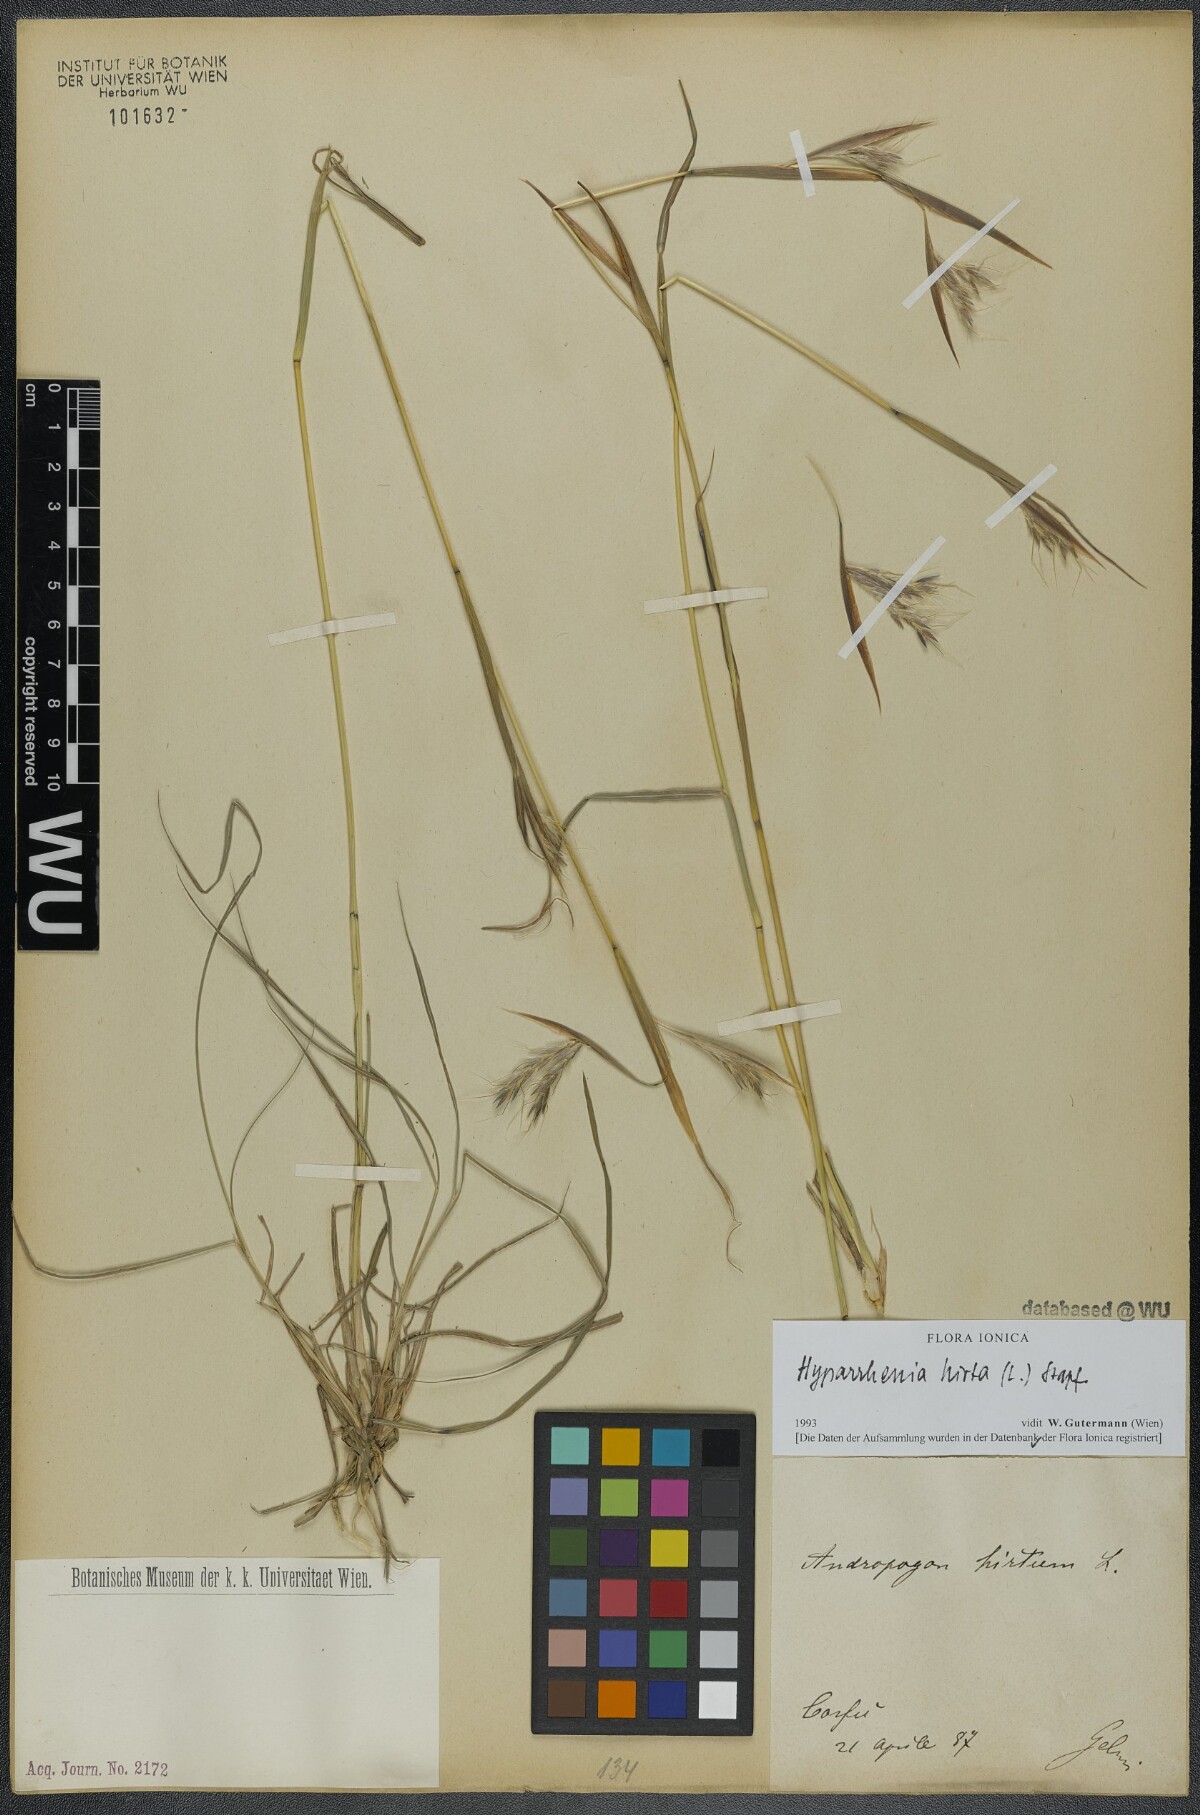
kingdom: Plantae
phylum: Tracheophyta
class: Liliopsida
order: Poales
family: Poaceae
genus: Hyparrhenia
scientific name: Hyparrhenia hirta
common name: Thatching grass
